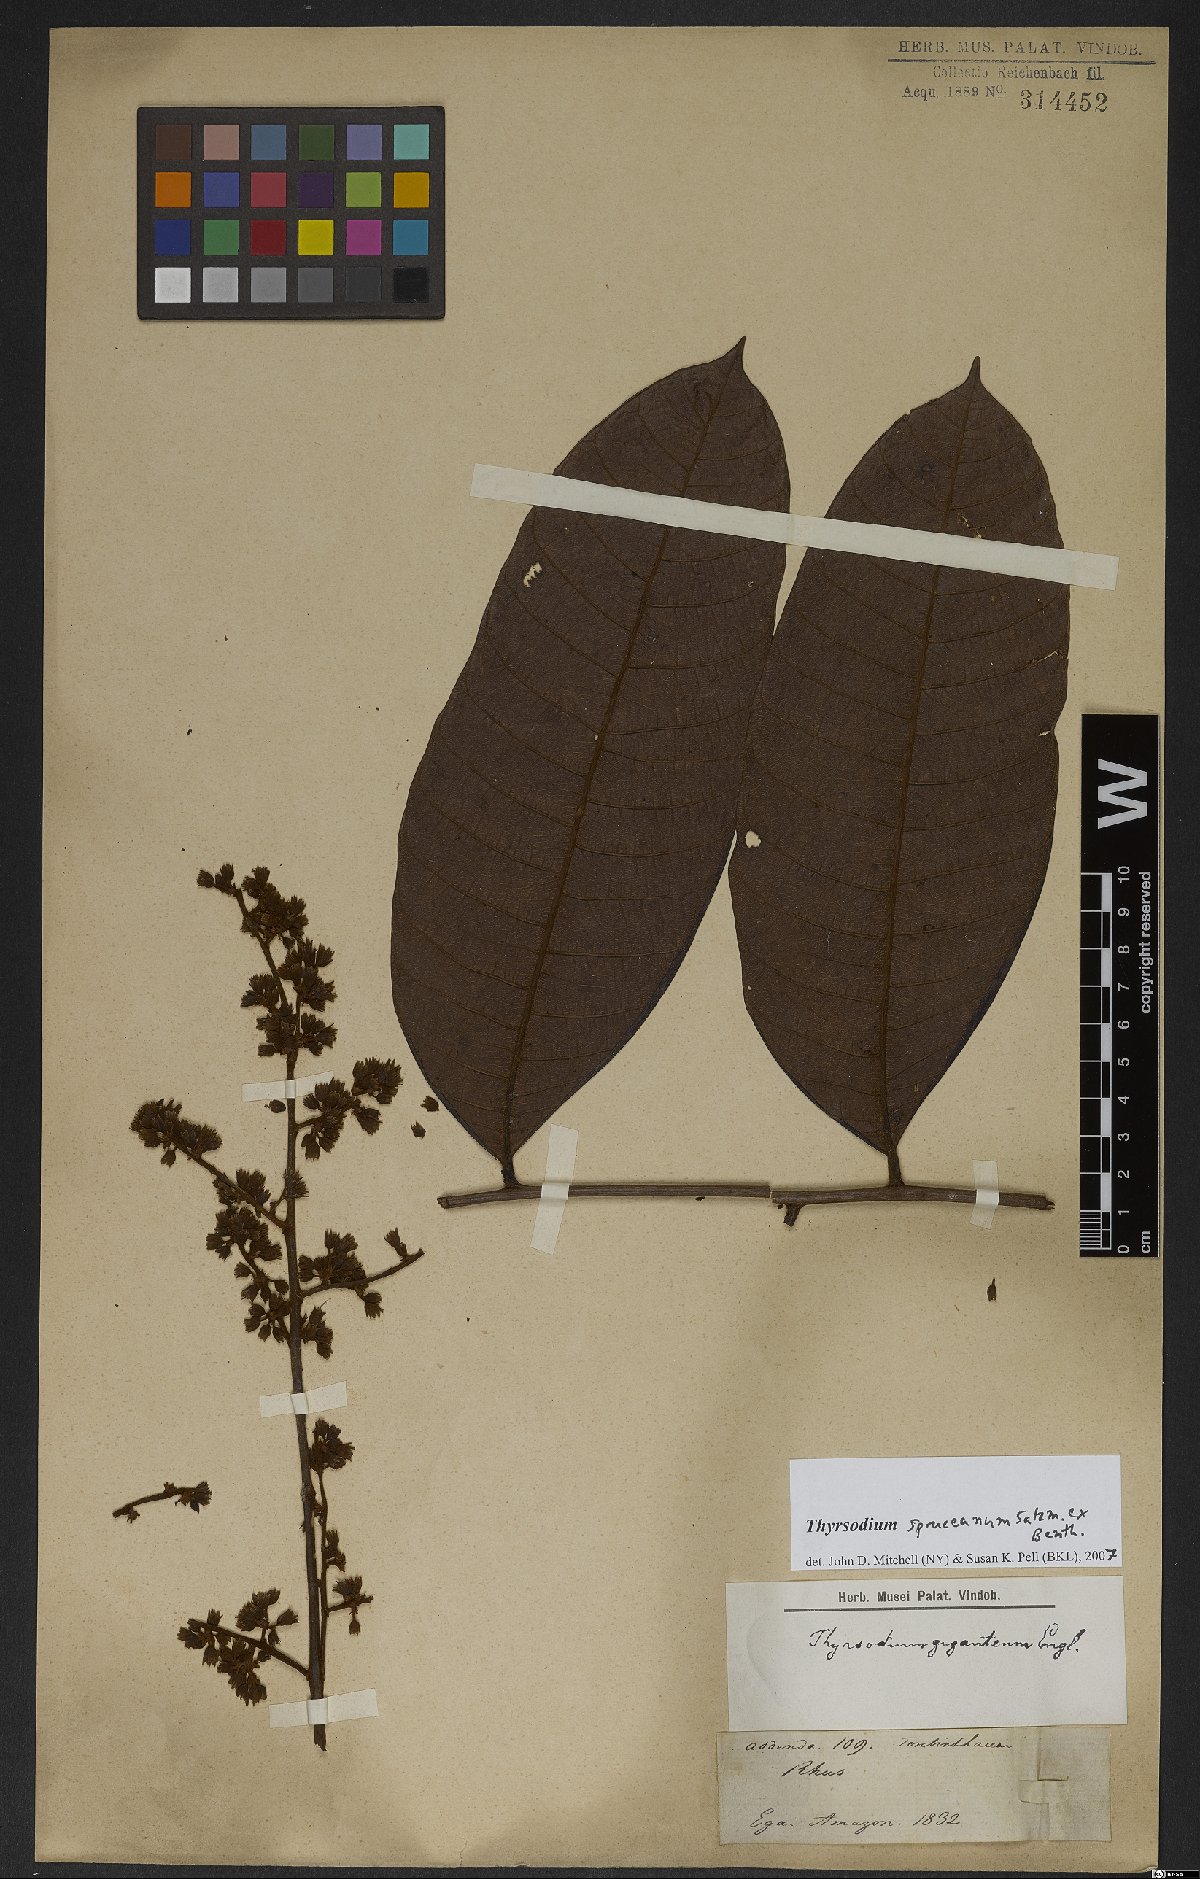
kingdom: Plantae
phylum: Tracheophyta
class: Magnoliopsida
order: Sapindales
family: Anacardiaceae
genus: Thyrsodium
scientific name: Thyrsodium spruceanum
